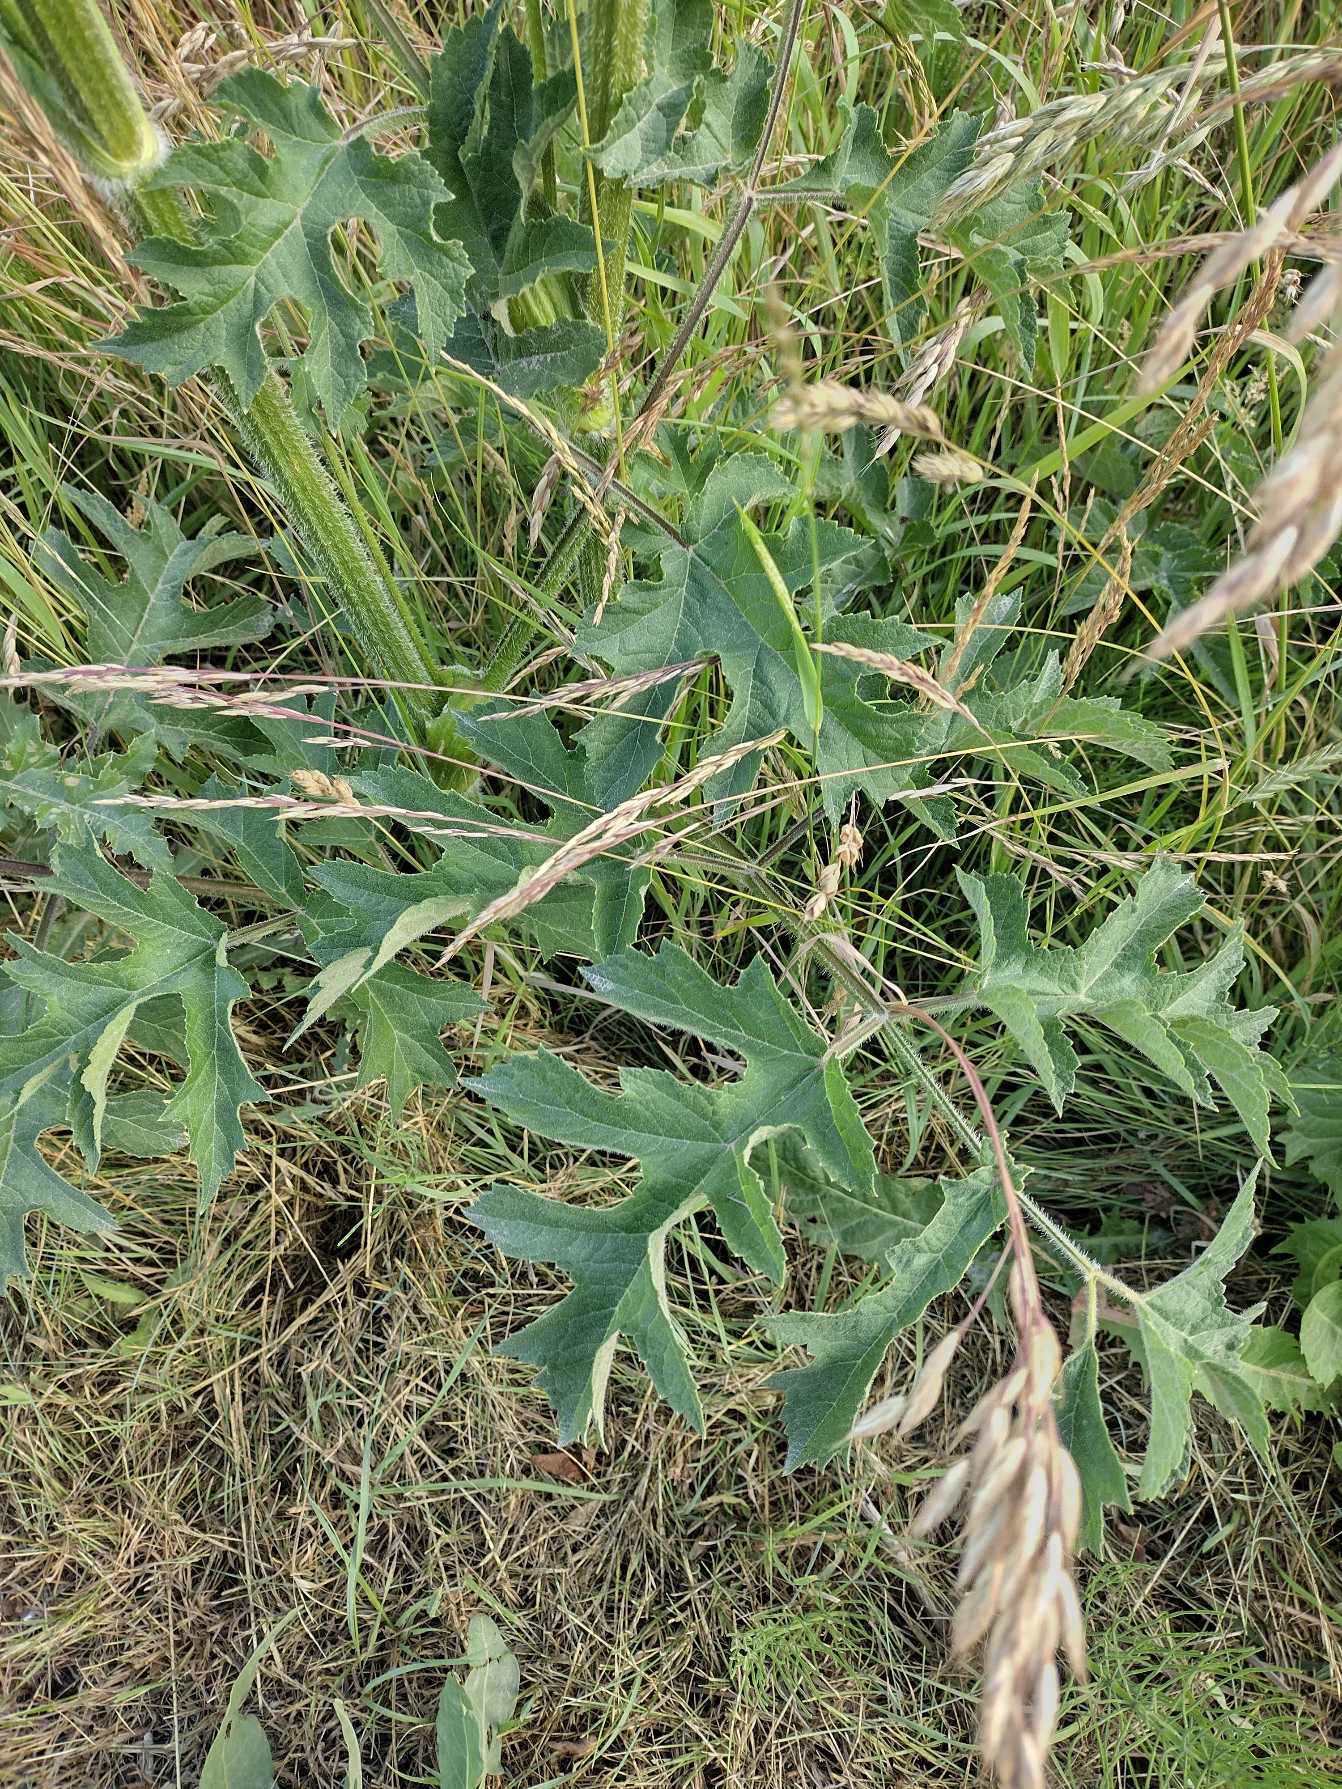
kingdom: Plantae
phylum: Tracheophyta
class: Magnoliopsida
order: Apiales
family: Apiaceae
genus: Heracleum
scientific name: Heracleum sphondylium
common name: Almindelig bjørneklo
